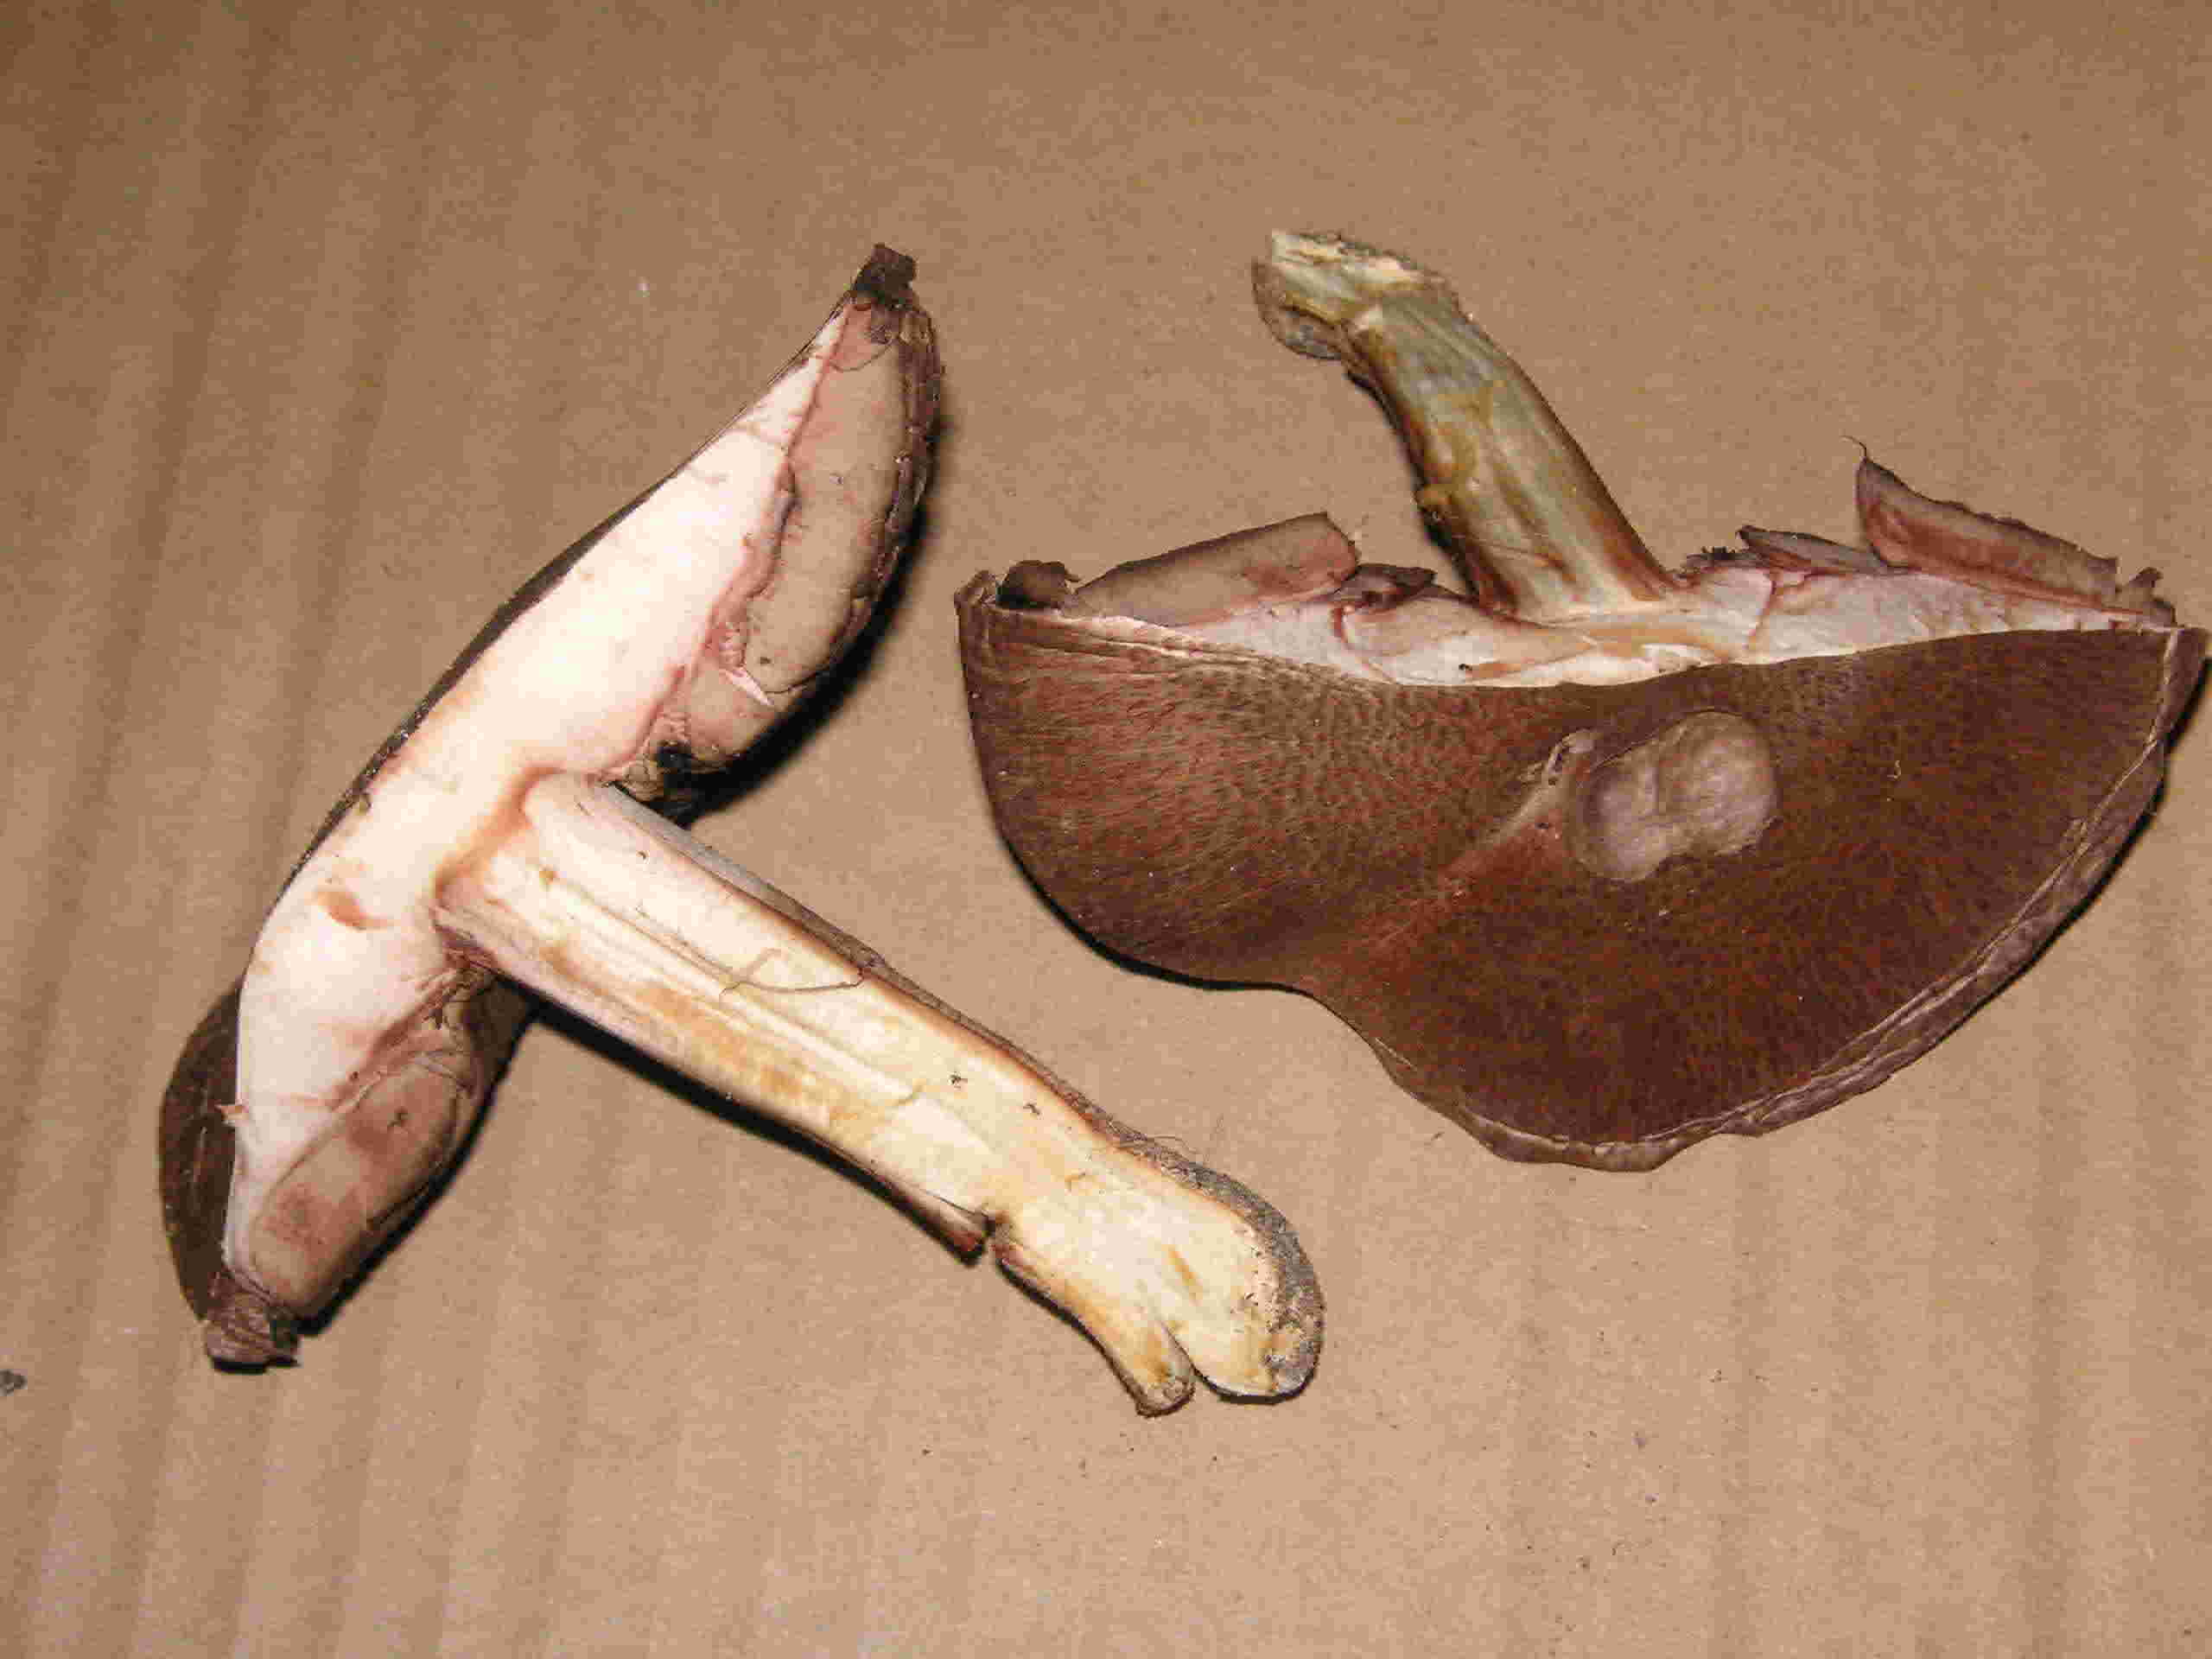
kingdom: Fungi
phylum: Basidiomycota
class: Agaricomycetes
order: Agaricales
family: Agaricaceae
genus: Agaricus
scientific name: Agaricus langei
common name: stor blod-champignon
